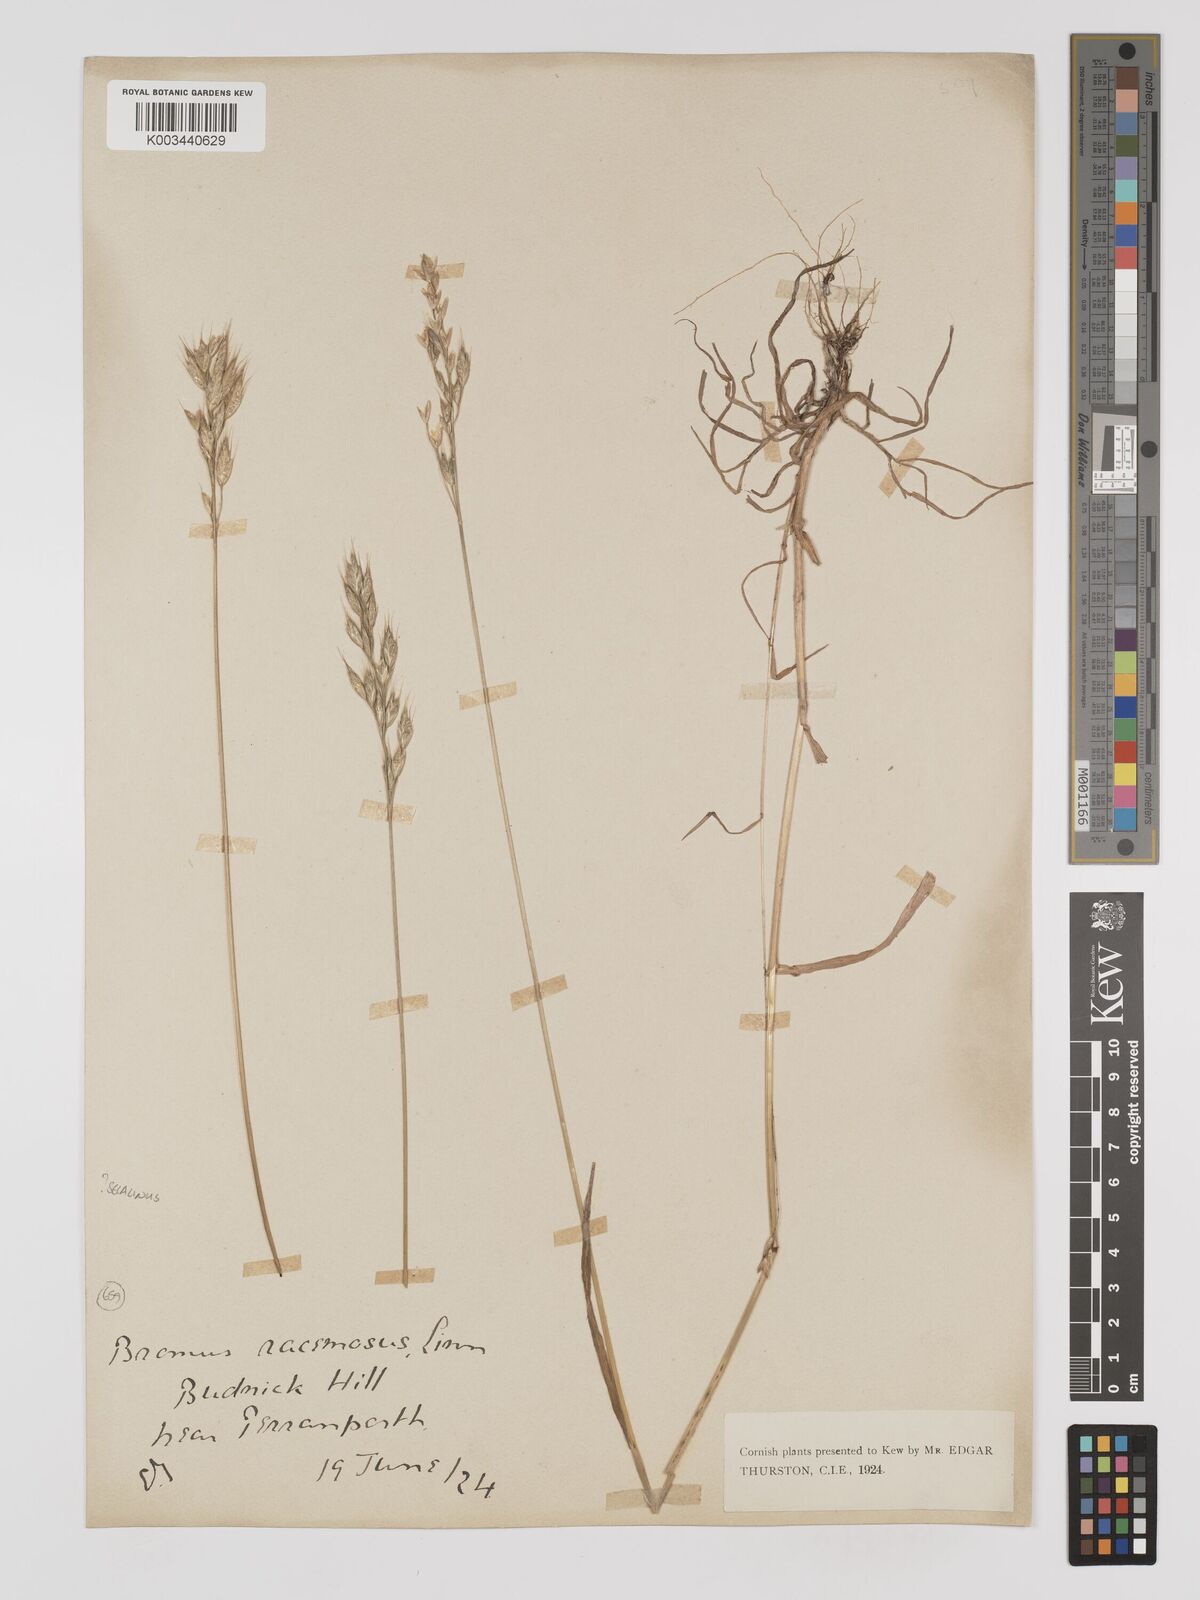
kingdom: Plantae
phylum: Tracheophyta
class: Liliopsida
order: Poales
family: Poaceae
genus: Bromus
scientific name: Bromus hordeaceus
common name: Soft brome
